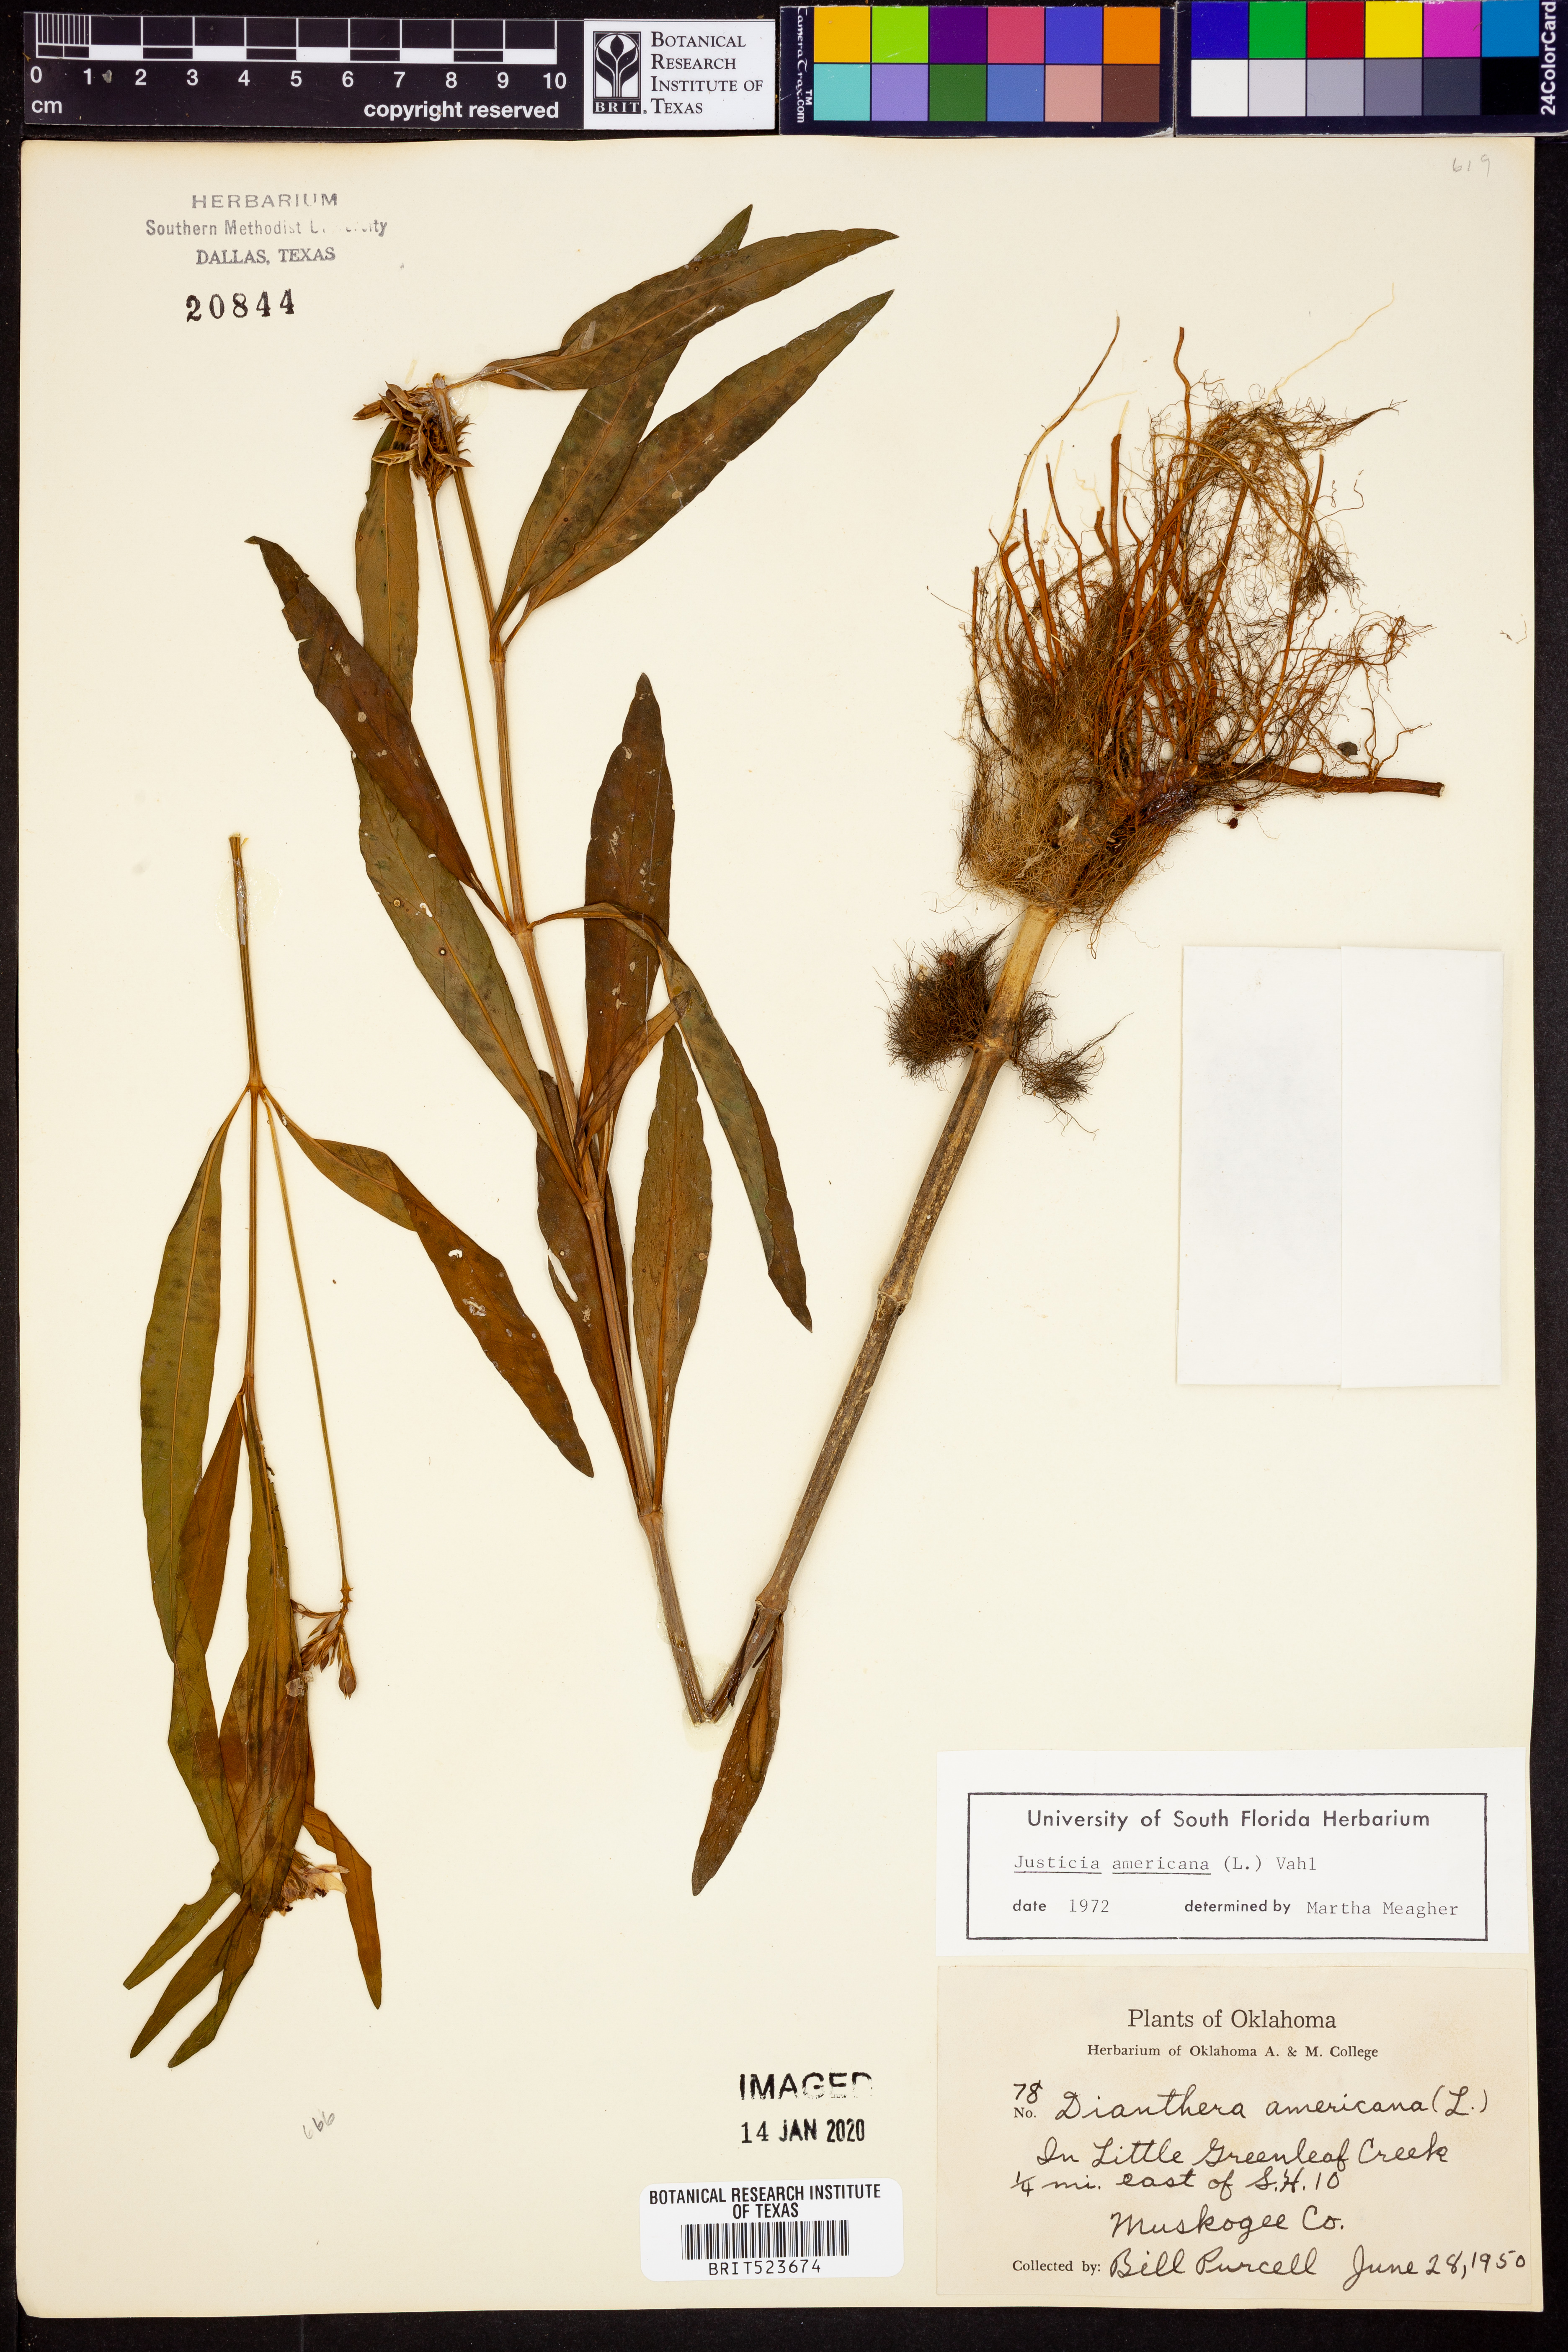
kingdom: Plantae
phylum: Tracheophyta
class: Magnoliopsida
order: Lamiales
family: Acanthaceae
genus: Dianthera
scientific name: Dianthera americana
